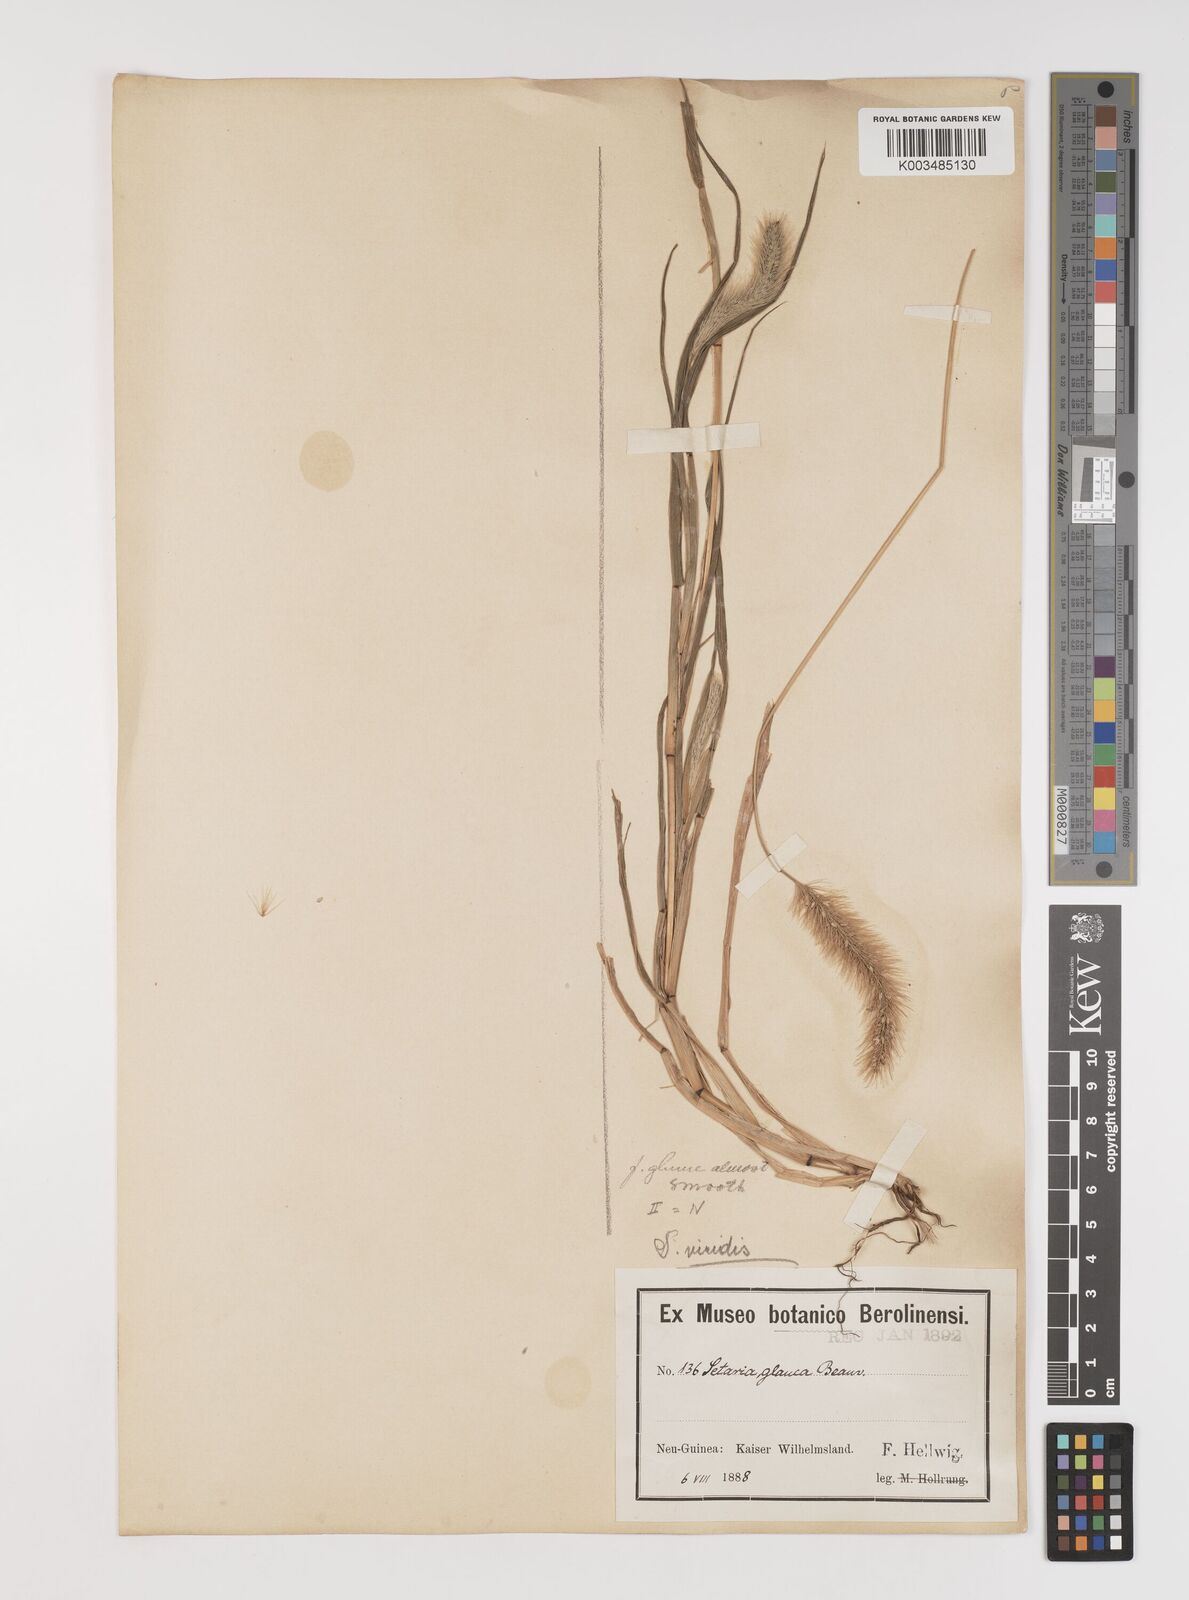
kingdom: Plantae
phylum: Tracheophyta
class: Liliopsida
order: Poales
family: Poaceae
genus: Setaria
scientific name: Setaria viridis
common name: Green bristlegrass
